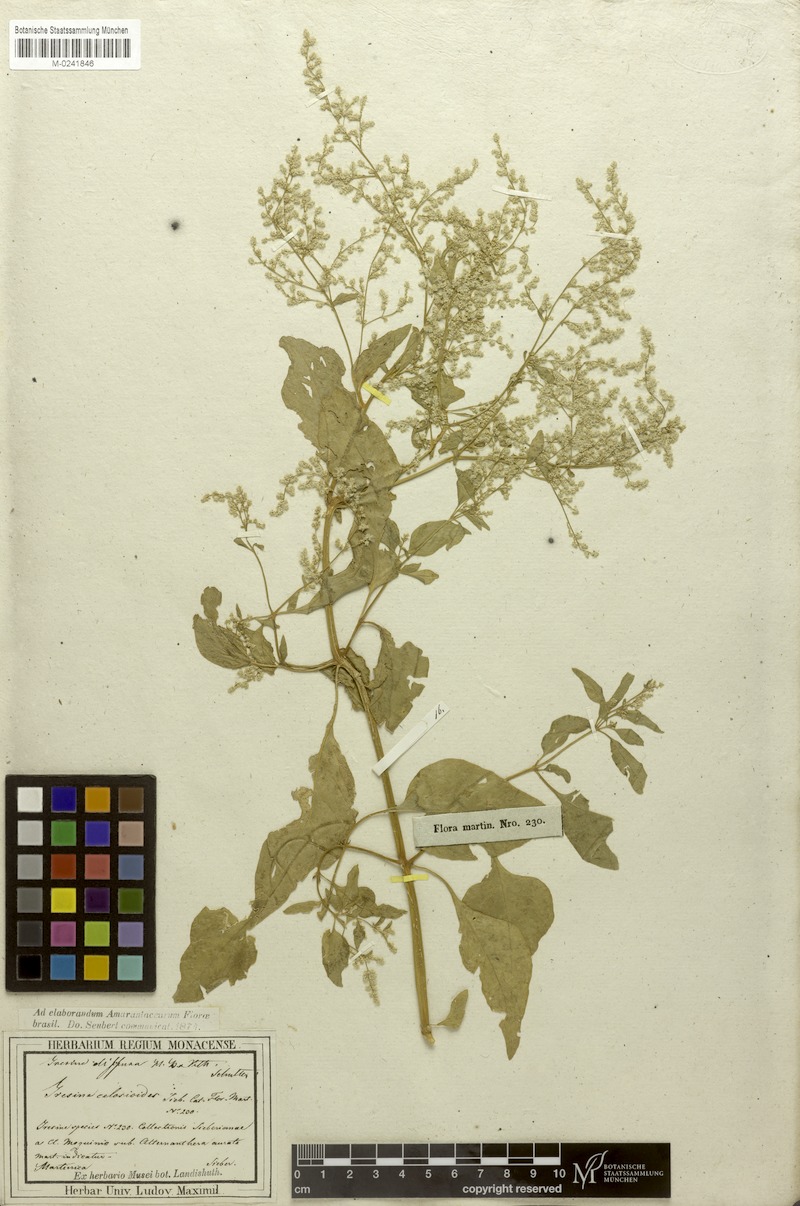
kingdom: Plantae
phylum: Tracheophyta
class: Magnoliopsida
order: Caryophyllales
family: Amaranthaceae
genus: Iresine
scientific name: Iresine diffusa
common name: Juba's-bush
